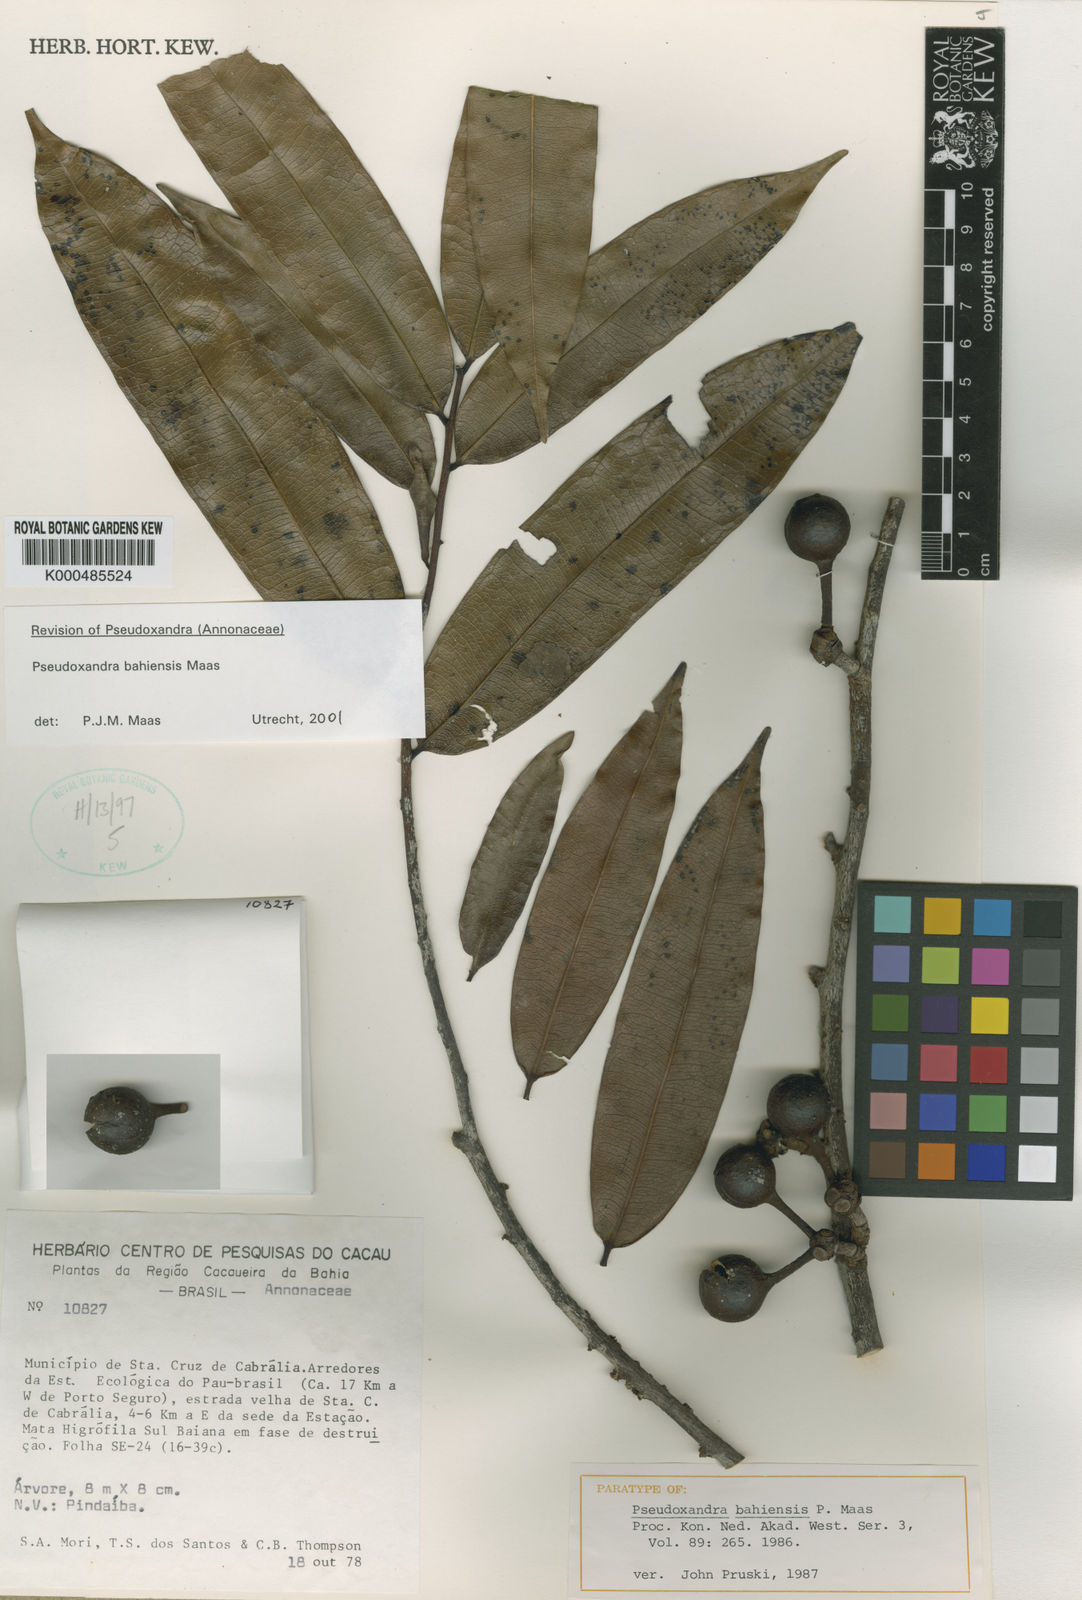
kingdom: Plantae
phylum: Tracheophyta
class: Magnoliopsida
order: Magnoliales
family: Annonaceae
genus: Pseudoxandra
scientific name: Pseudoxandra bahiensis
